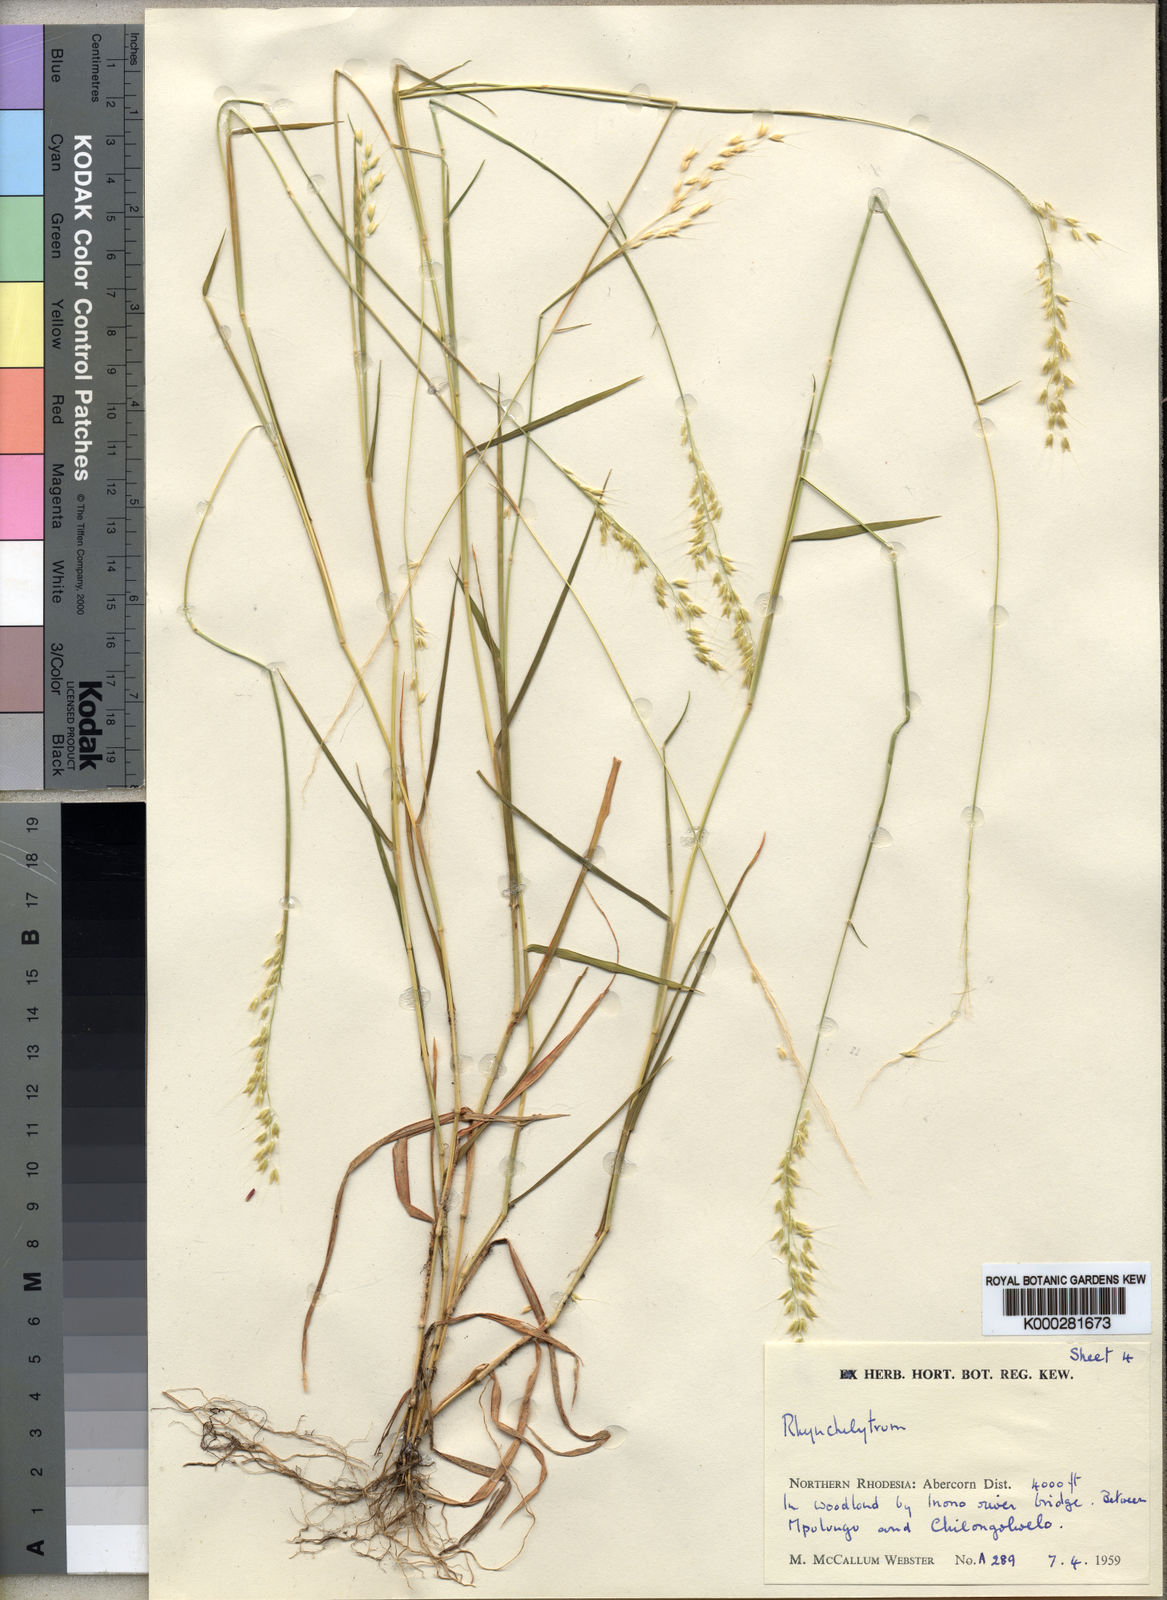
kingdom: Plantae
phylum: Tracheophyta
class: Liliopsida
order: Poales
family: Poaceae
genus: Melinis
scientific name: Melinis kallimorpha
